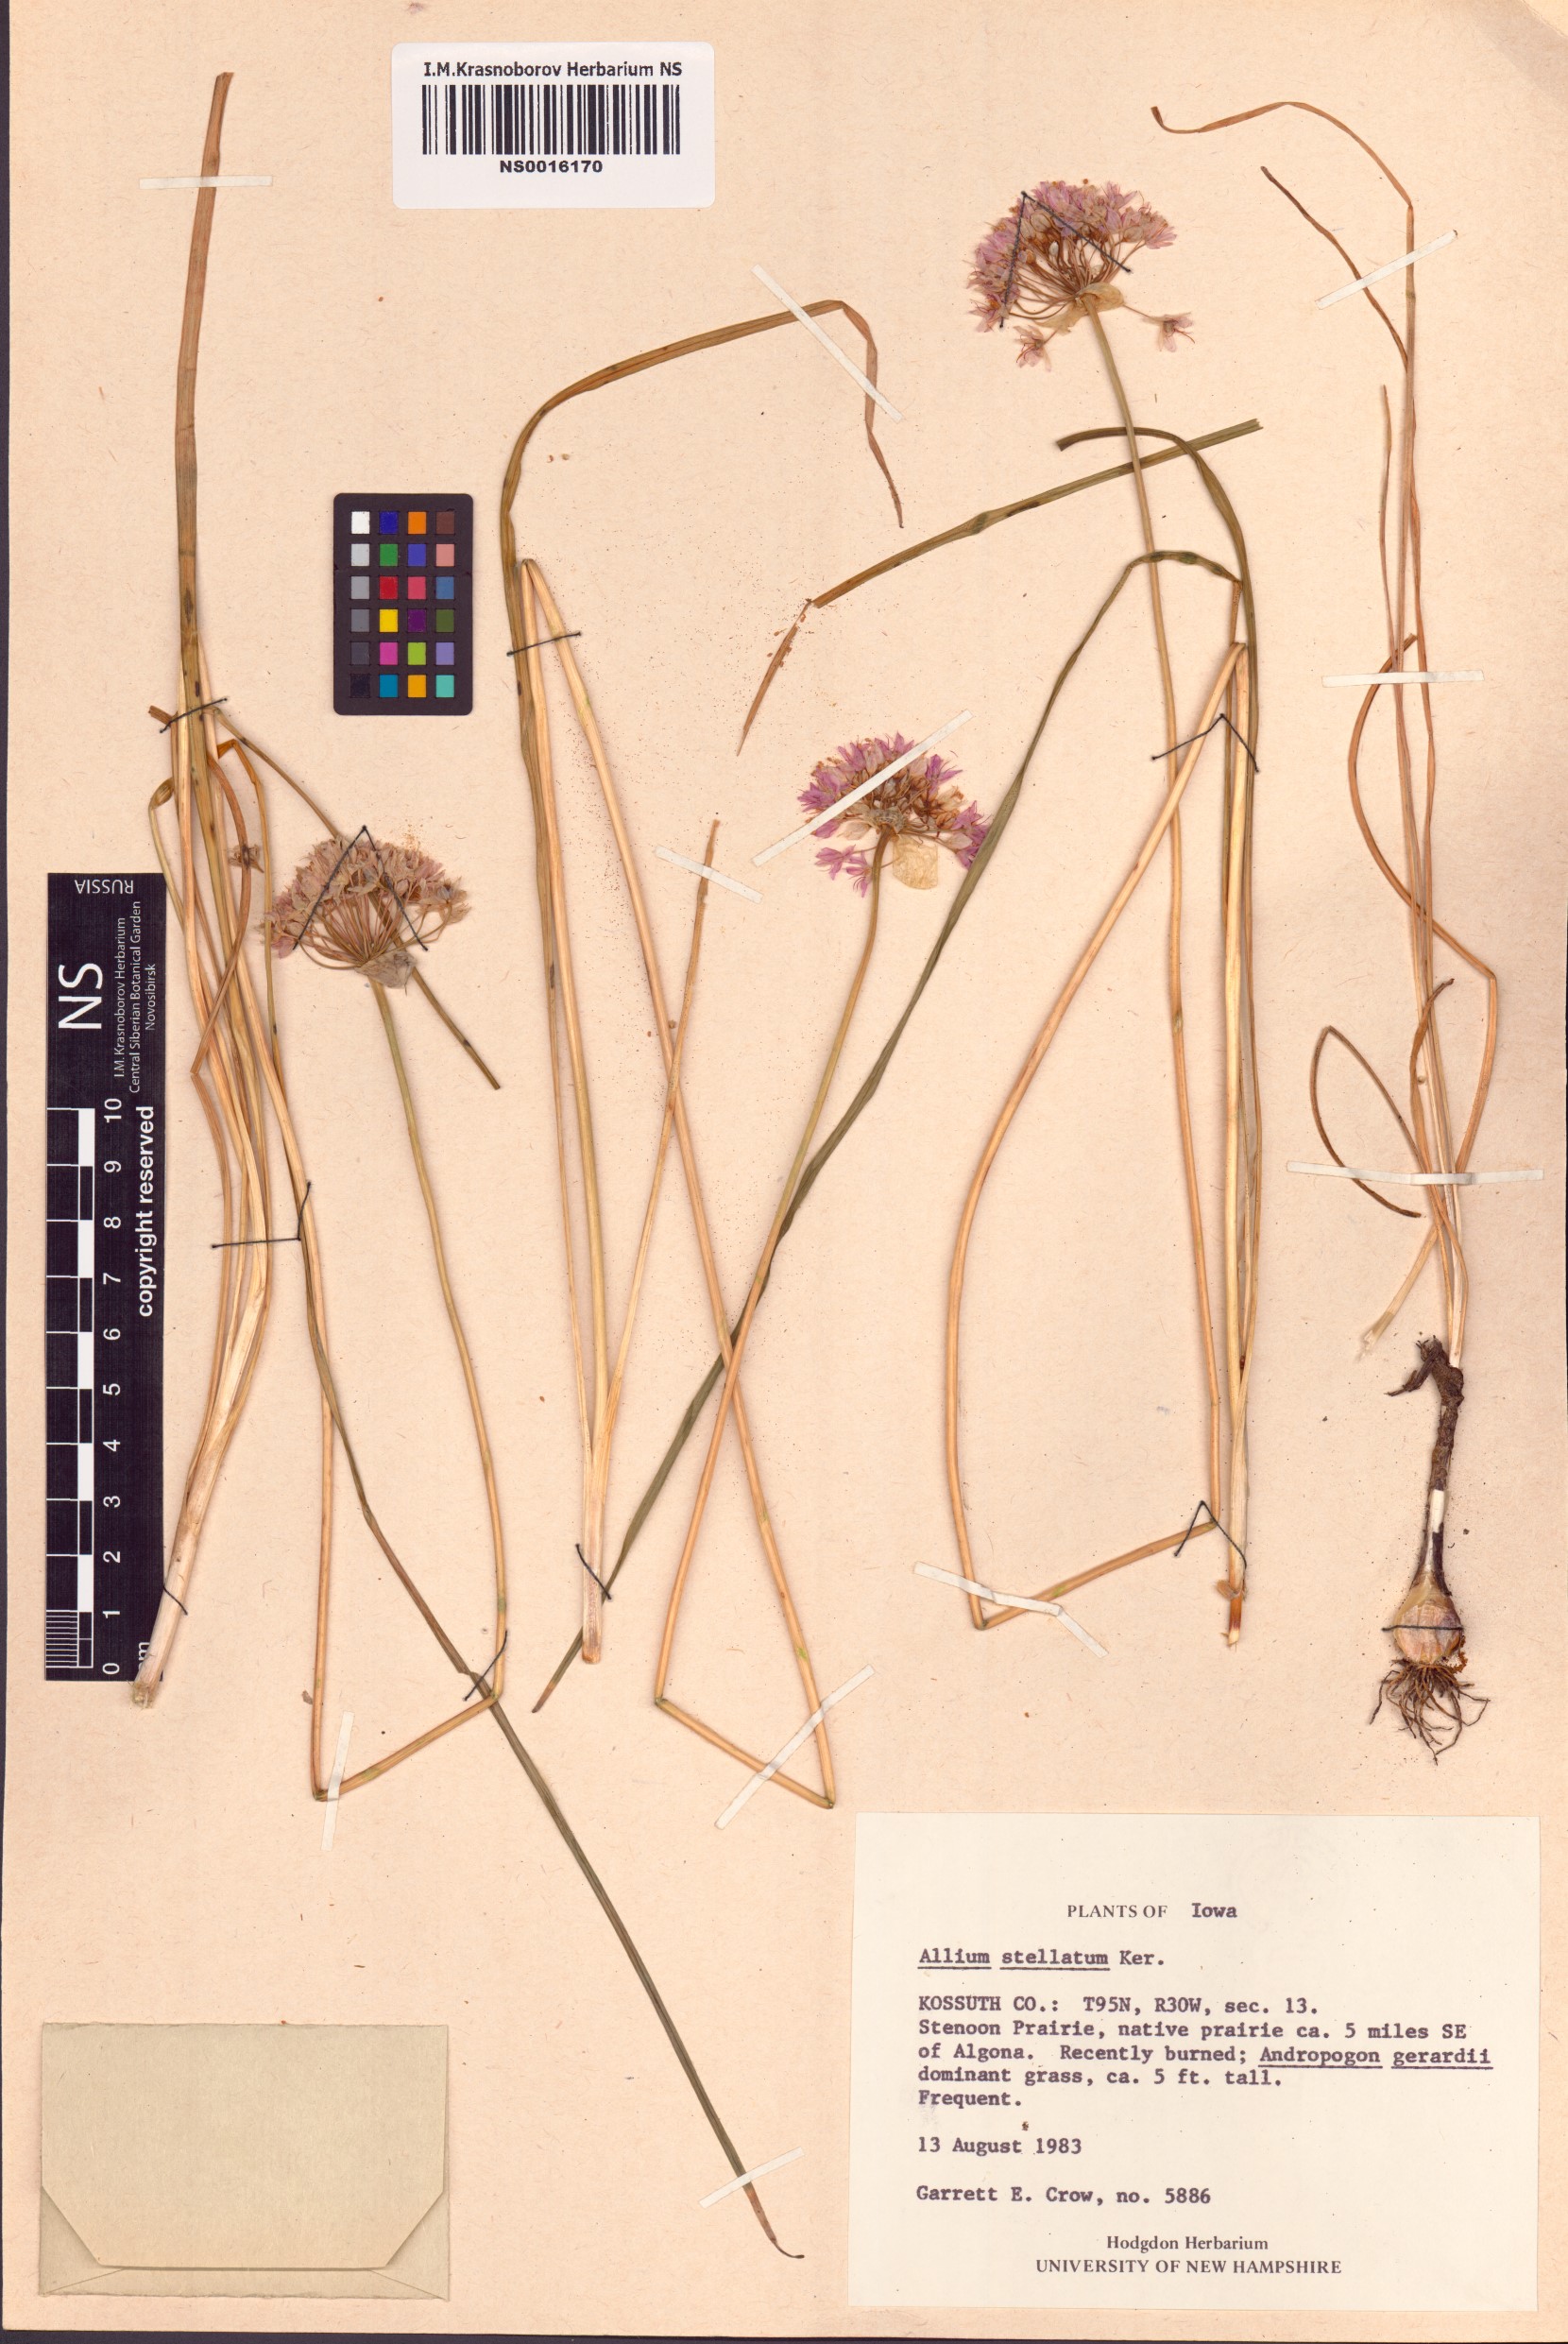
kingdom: Plantae
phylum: Tracheophyta
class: Liliopsida
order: Asparagales
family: Amaryllidaceae
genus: Allium
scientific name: Allium stellatum
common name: Autumn onion
